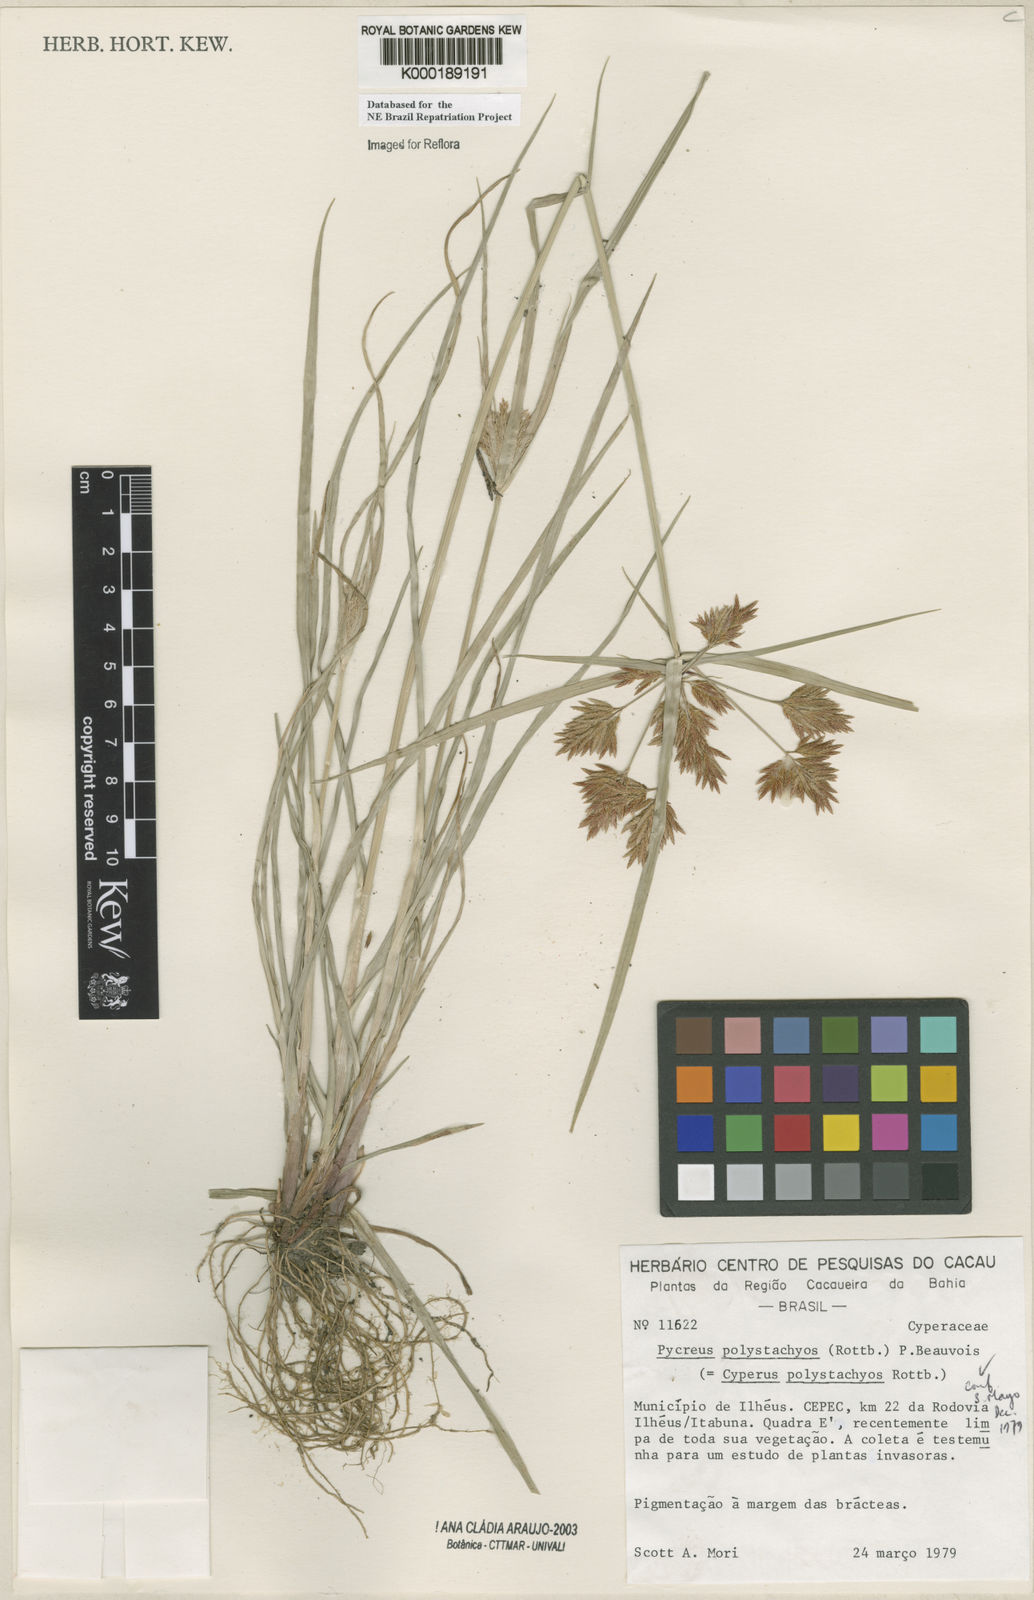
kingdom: Plantae
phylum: Tracheophyta
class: Liliopsida
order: Poales
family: Cyperaceae
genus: Cyperus
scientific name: Cyperus polystachyos
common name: Bunchy flat sedge
